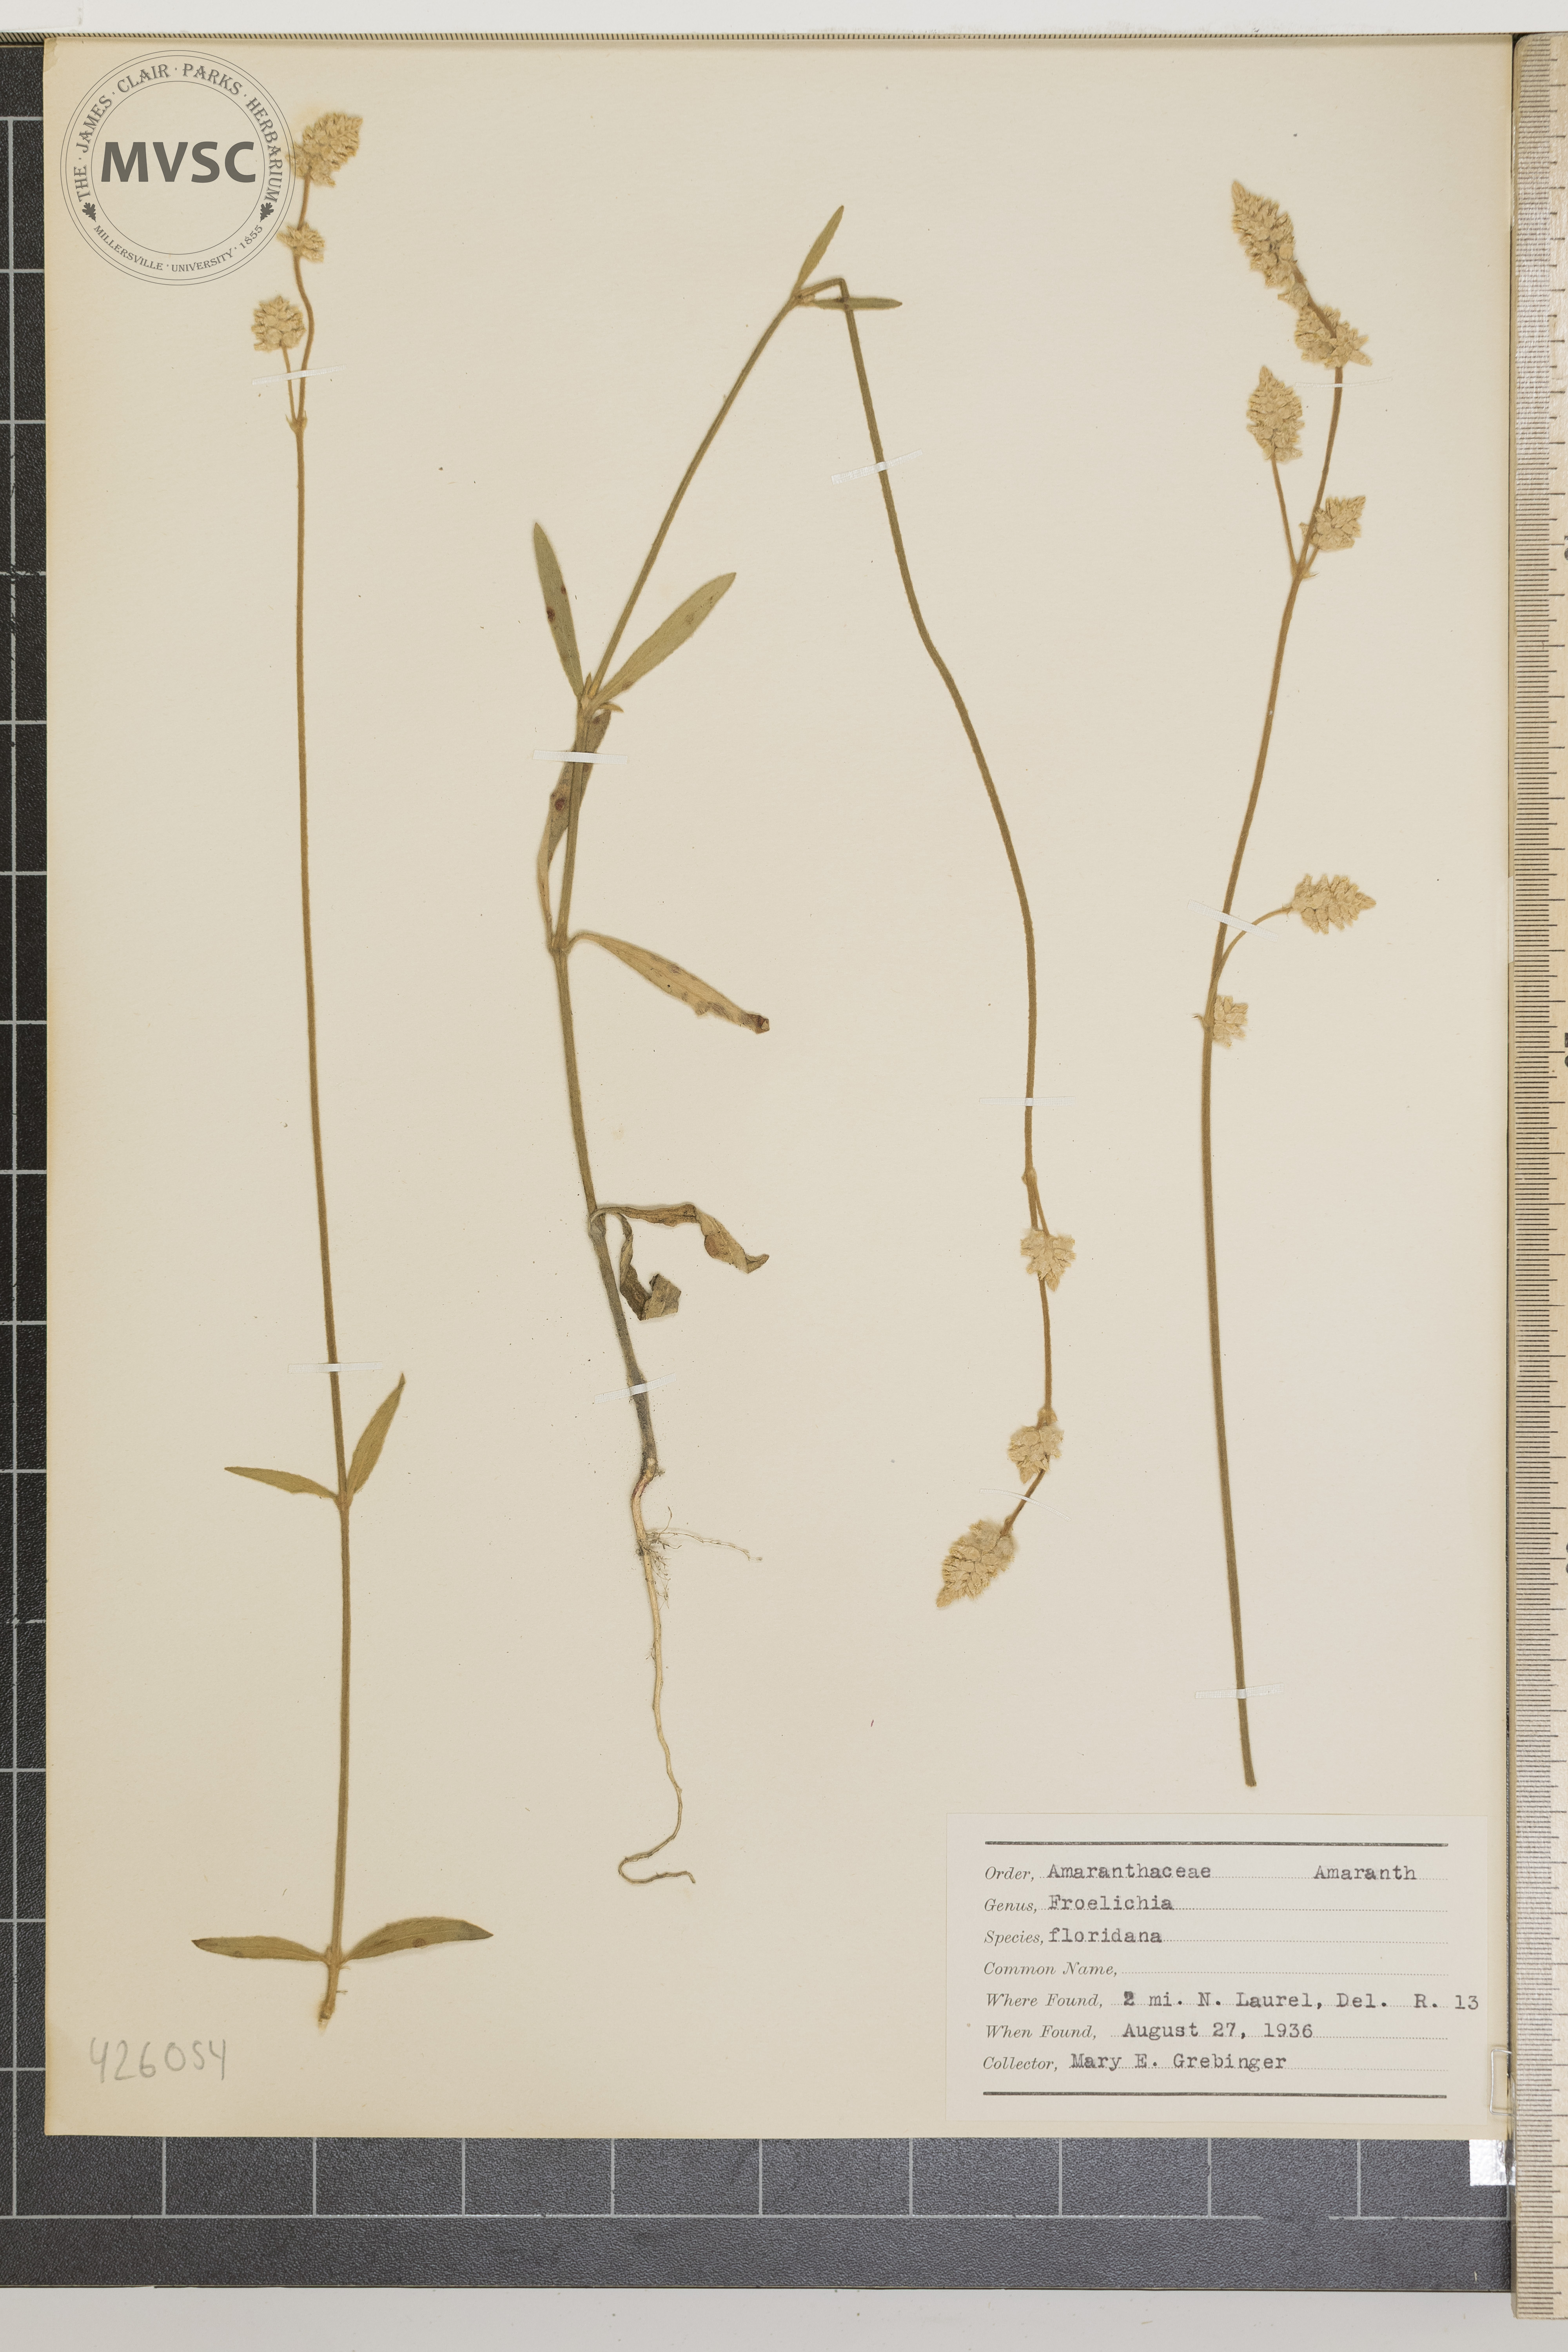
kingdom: Plantae
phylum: Tracheophyta
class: Magnoliopsida
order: Caryophyllales
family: Amaranthaceae
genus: Froelichia
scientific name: Froelichia floridana
